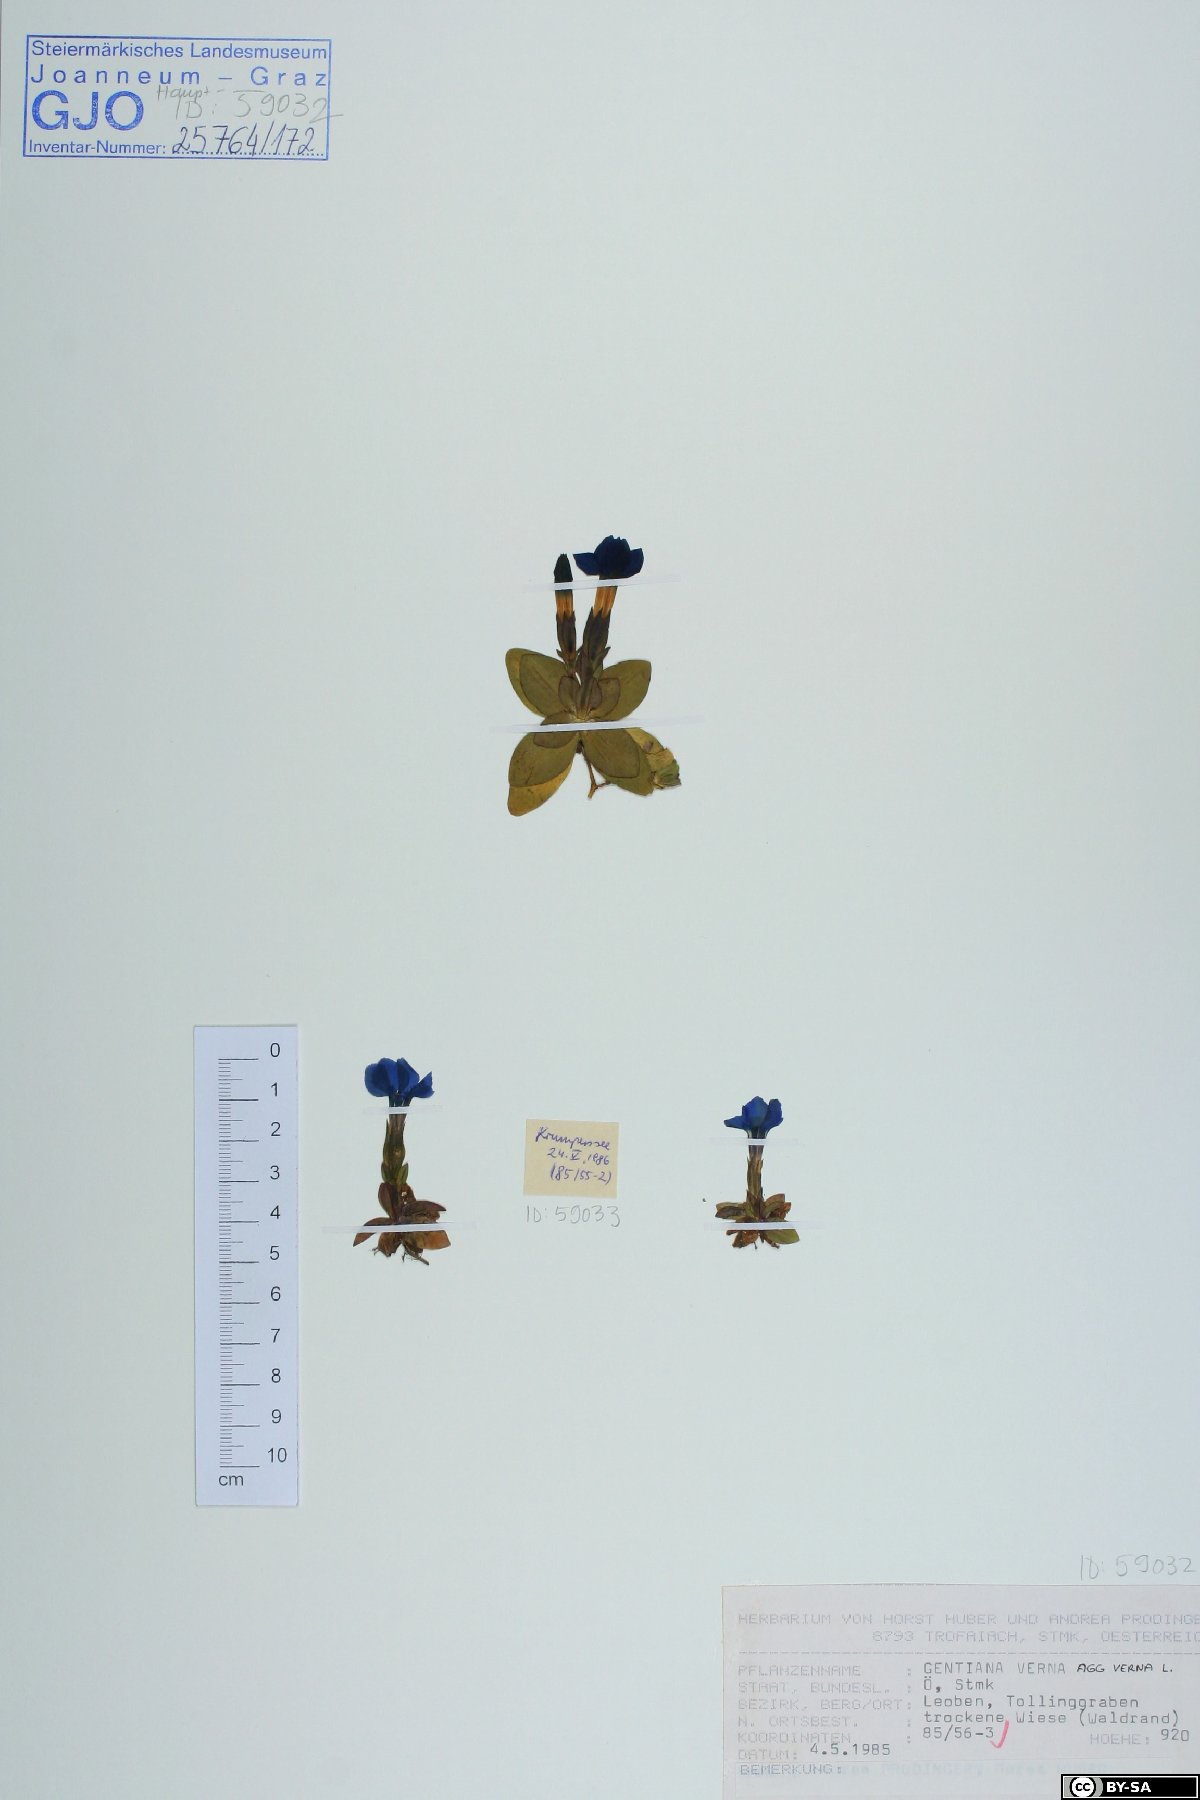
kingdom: Plantae
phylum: Tracheophyta
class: Magnoliopsida
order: Gentianales
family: Gentianaceae
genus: Gentiana
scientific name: Gentiana verna
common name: Spring gentian
